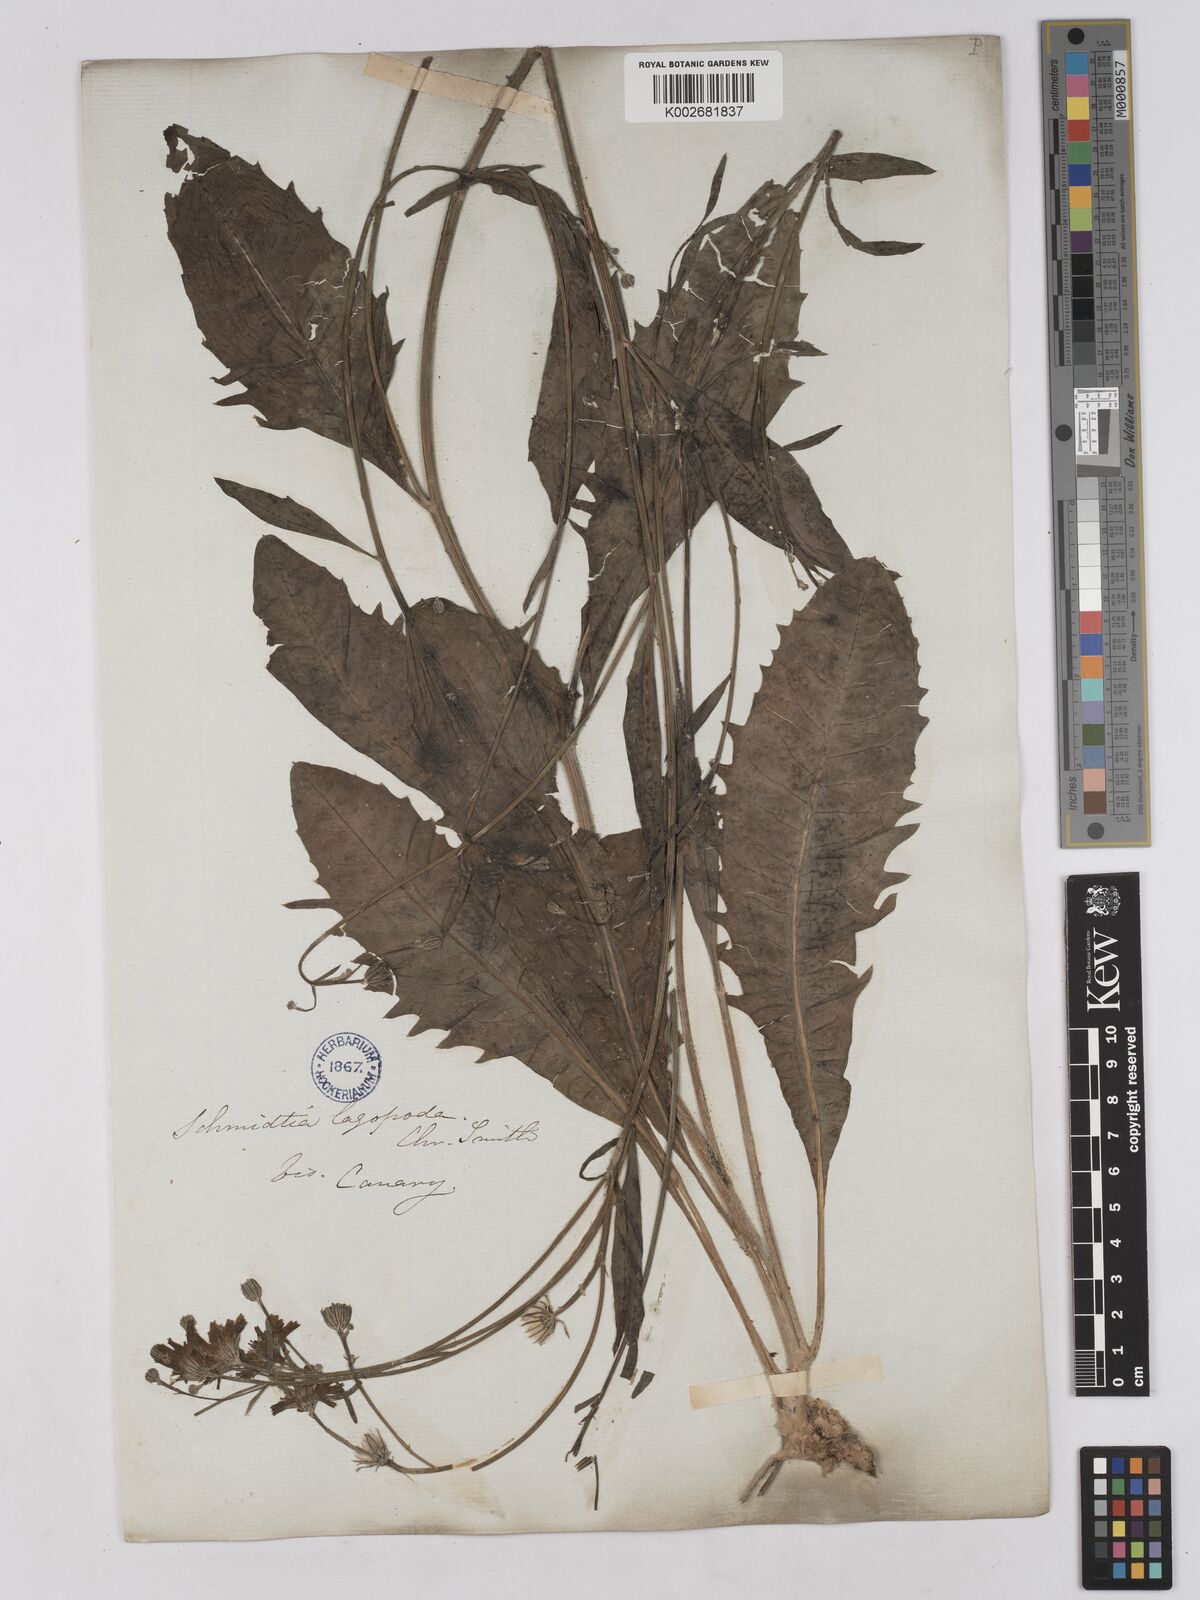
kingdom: Plantae
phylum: Tracheophyta
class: Magnoliopsida
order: Asterales
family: Asteraceae
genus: Tolpis
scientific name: Tolpis lagopoda
